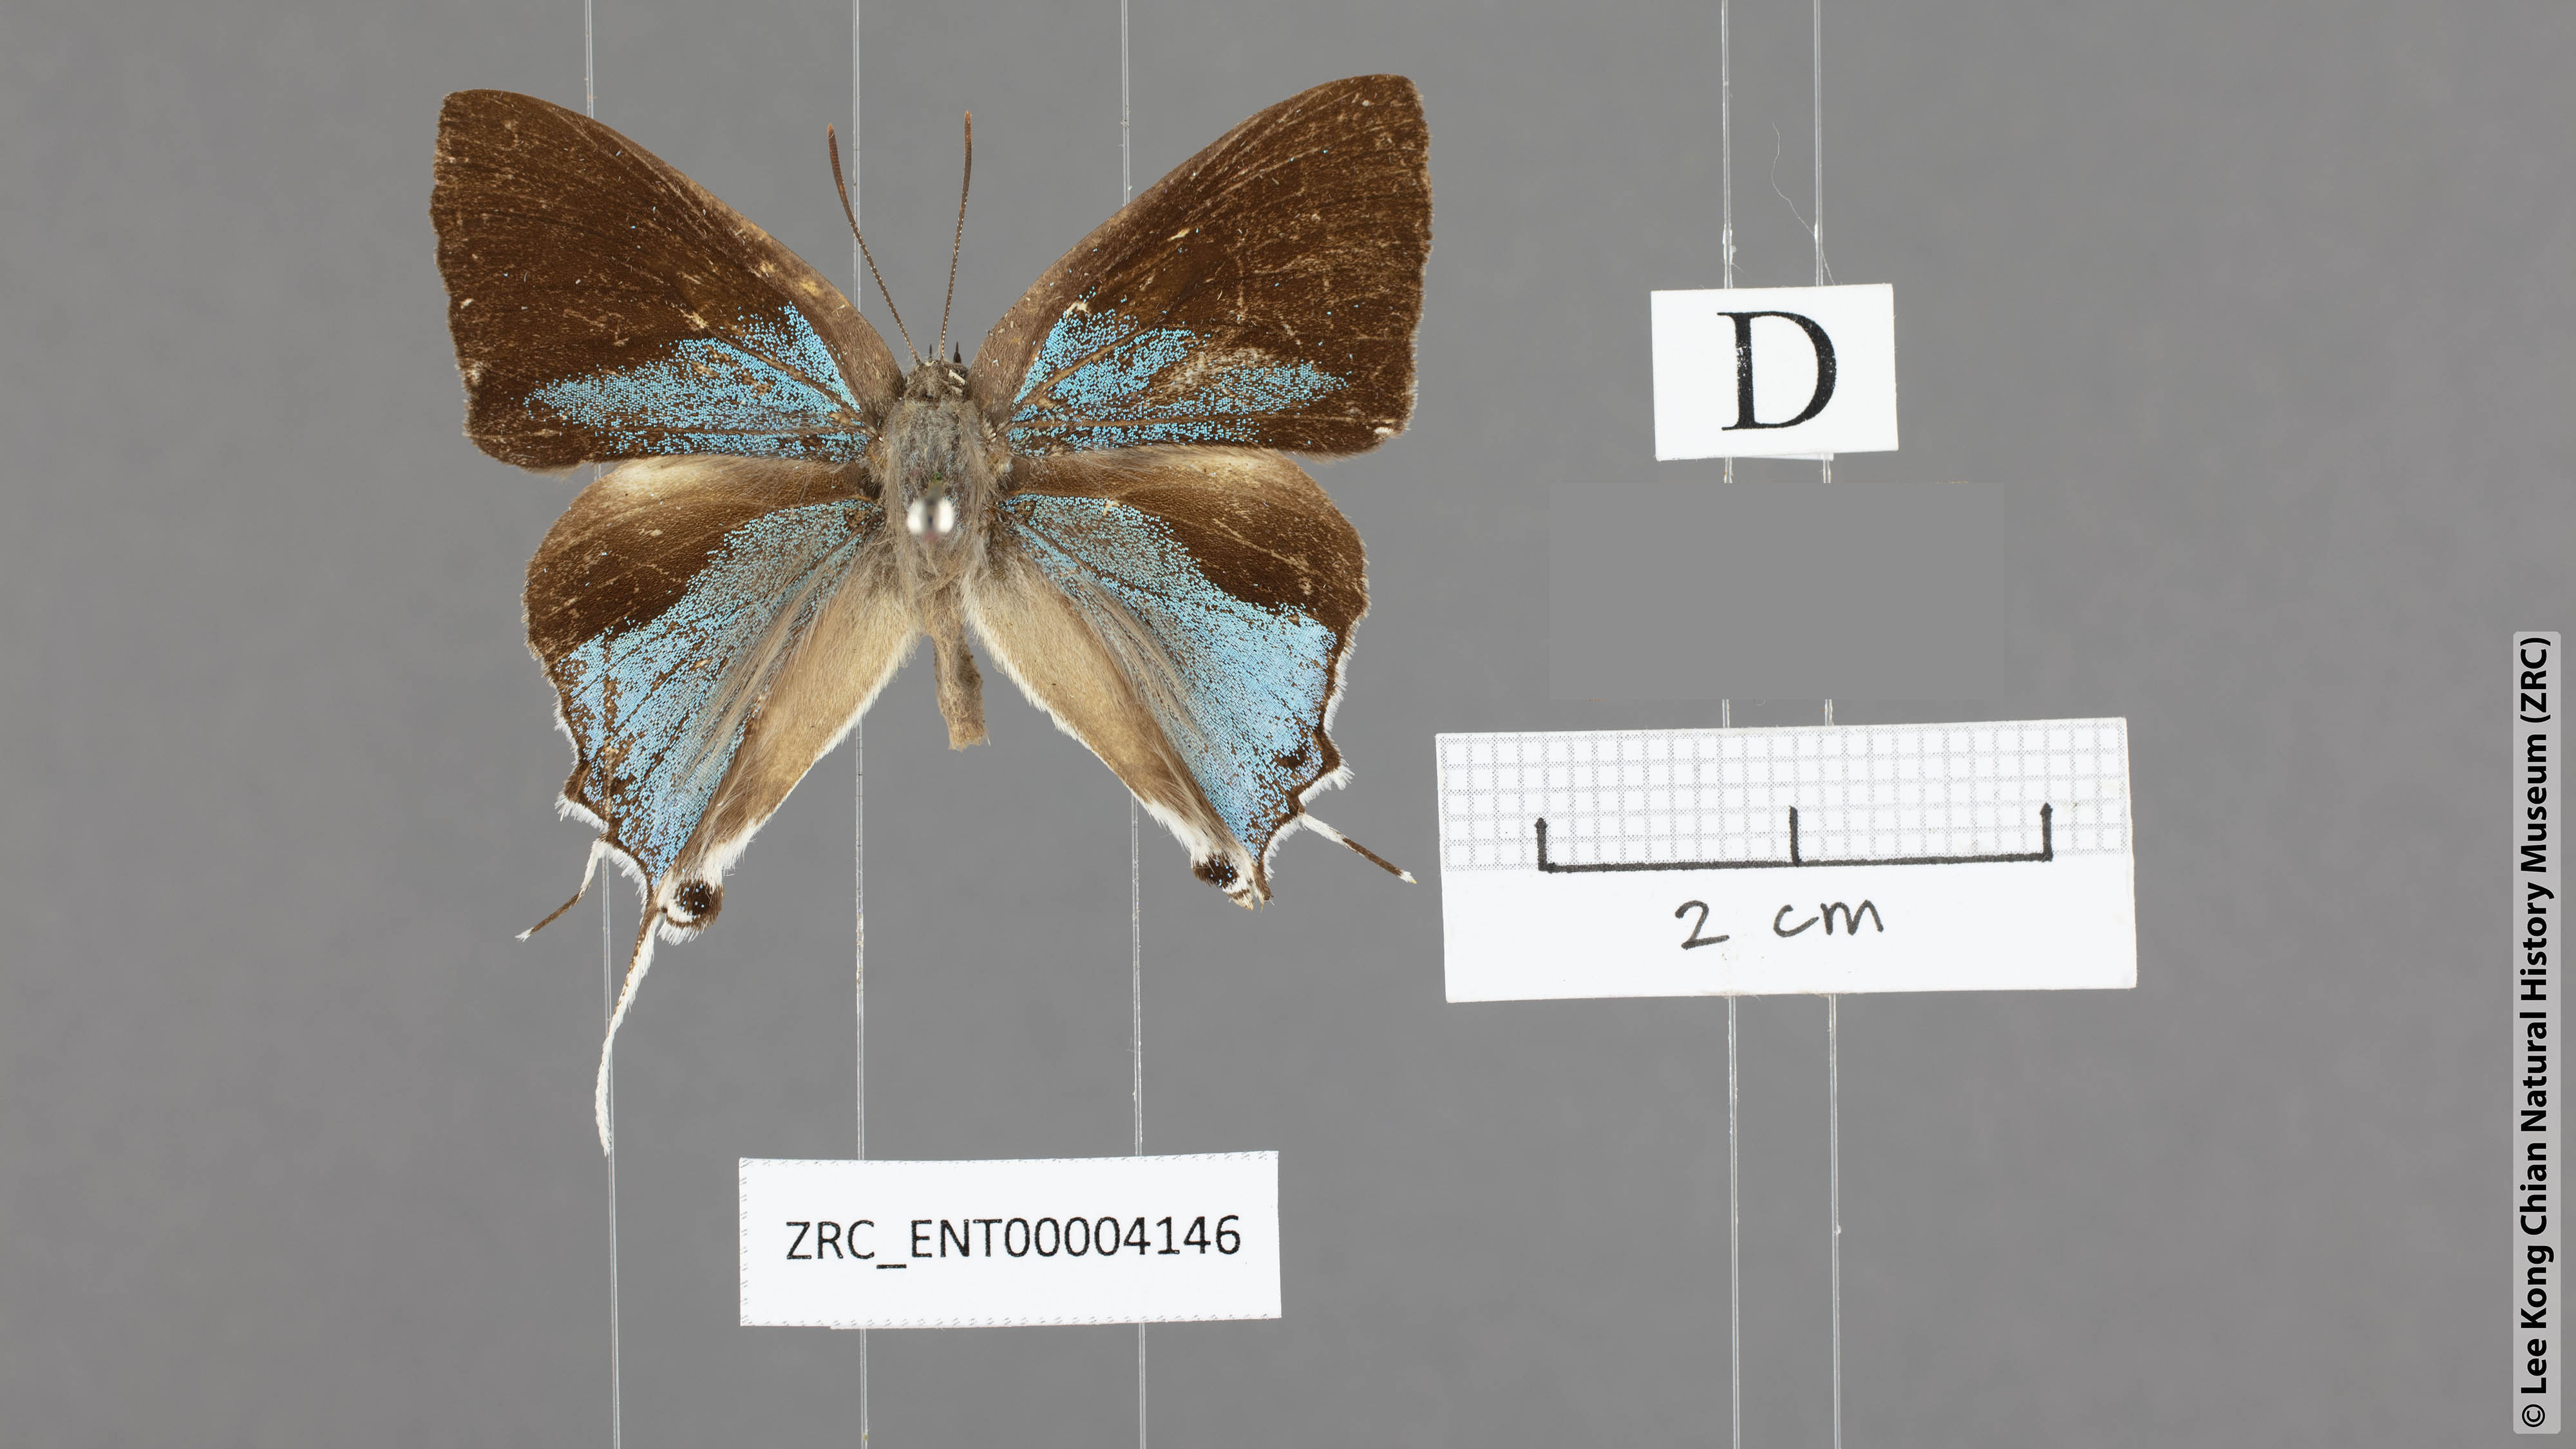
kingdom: Animalia
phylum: Arthropoda
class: Insecta
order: Lepidoptera
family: Lycaenidae
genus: Charana
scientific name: Charana mandarinus
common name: Mandarin blue
